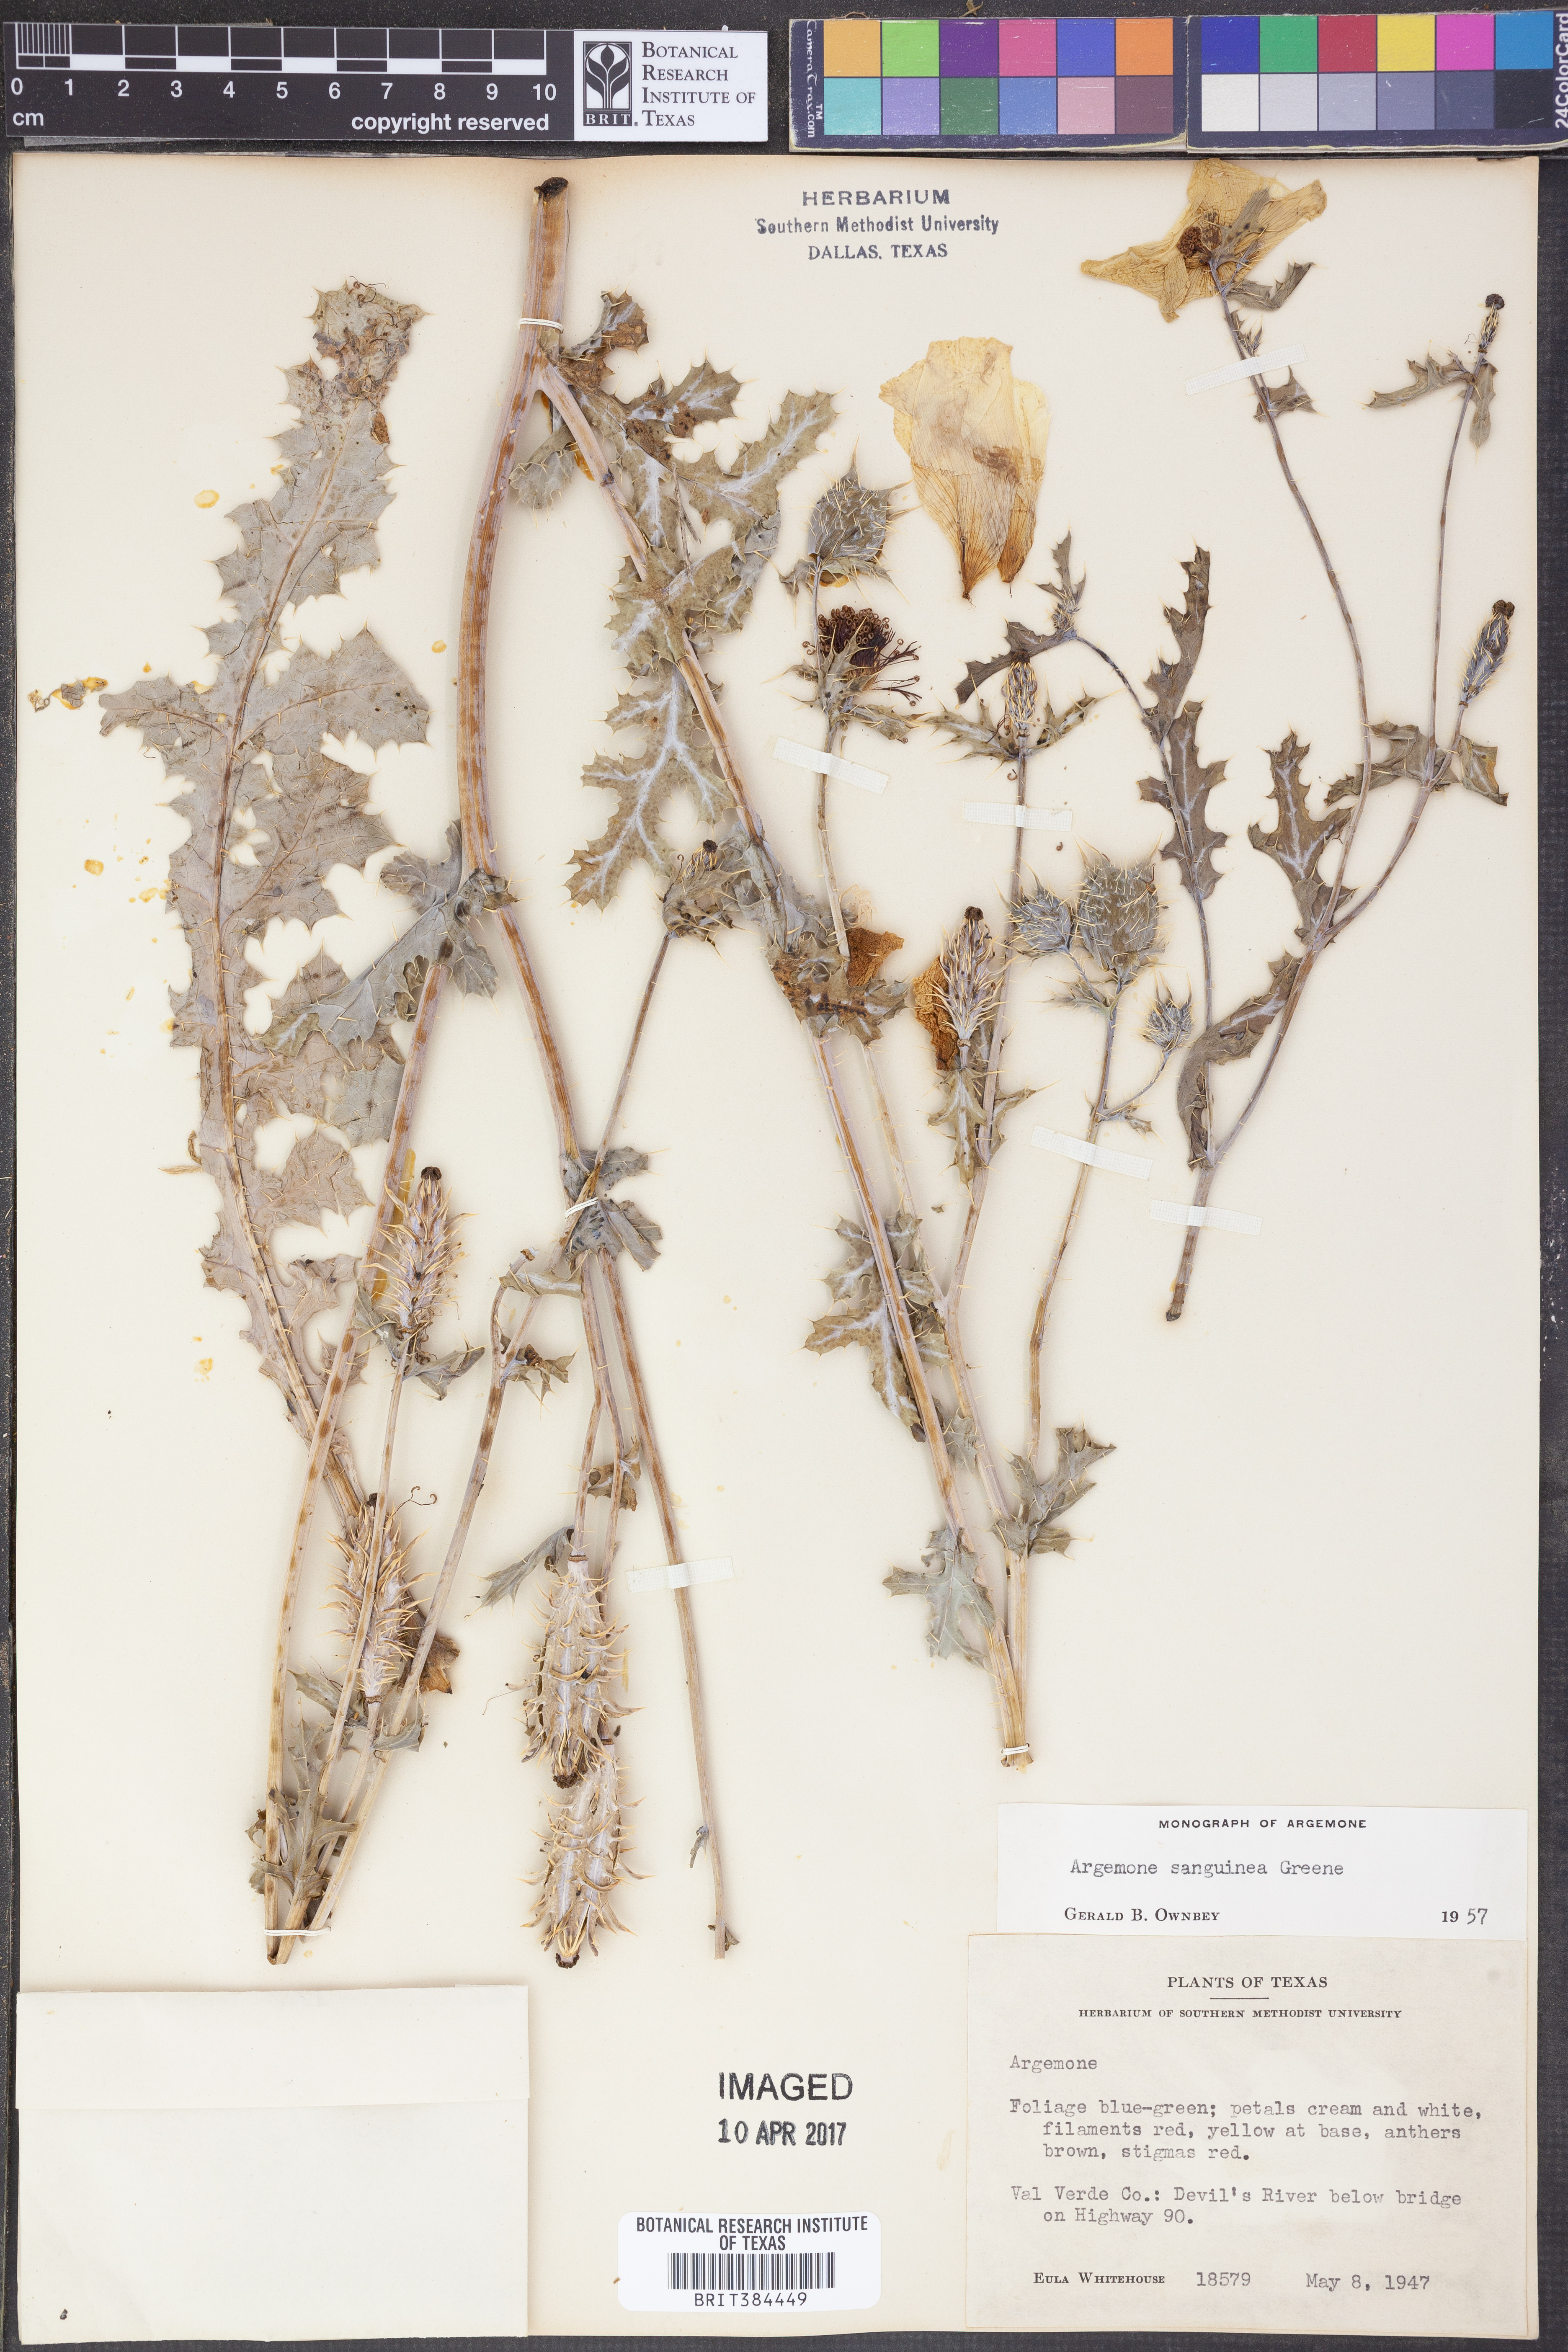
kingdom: Plantae
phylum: Tracheophyta
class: Magnoliopsida
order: Ranunculales
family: Papaveraceae
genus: Argemone
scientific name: Argemone sanguinea
